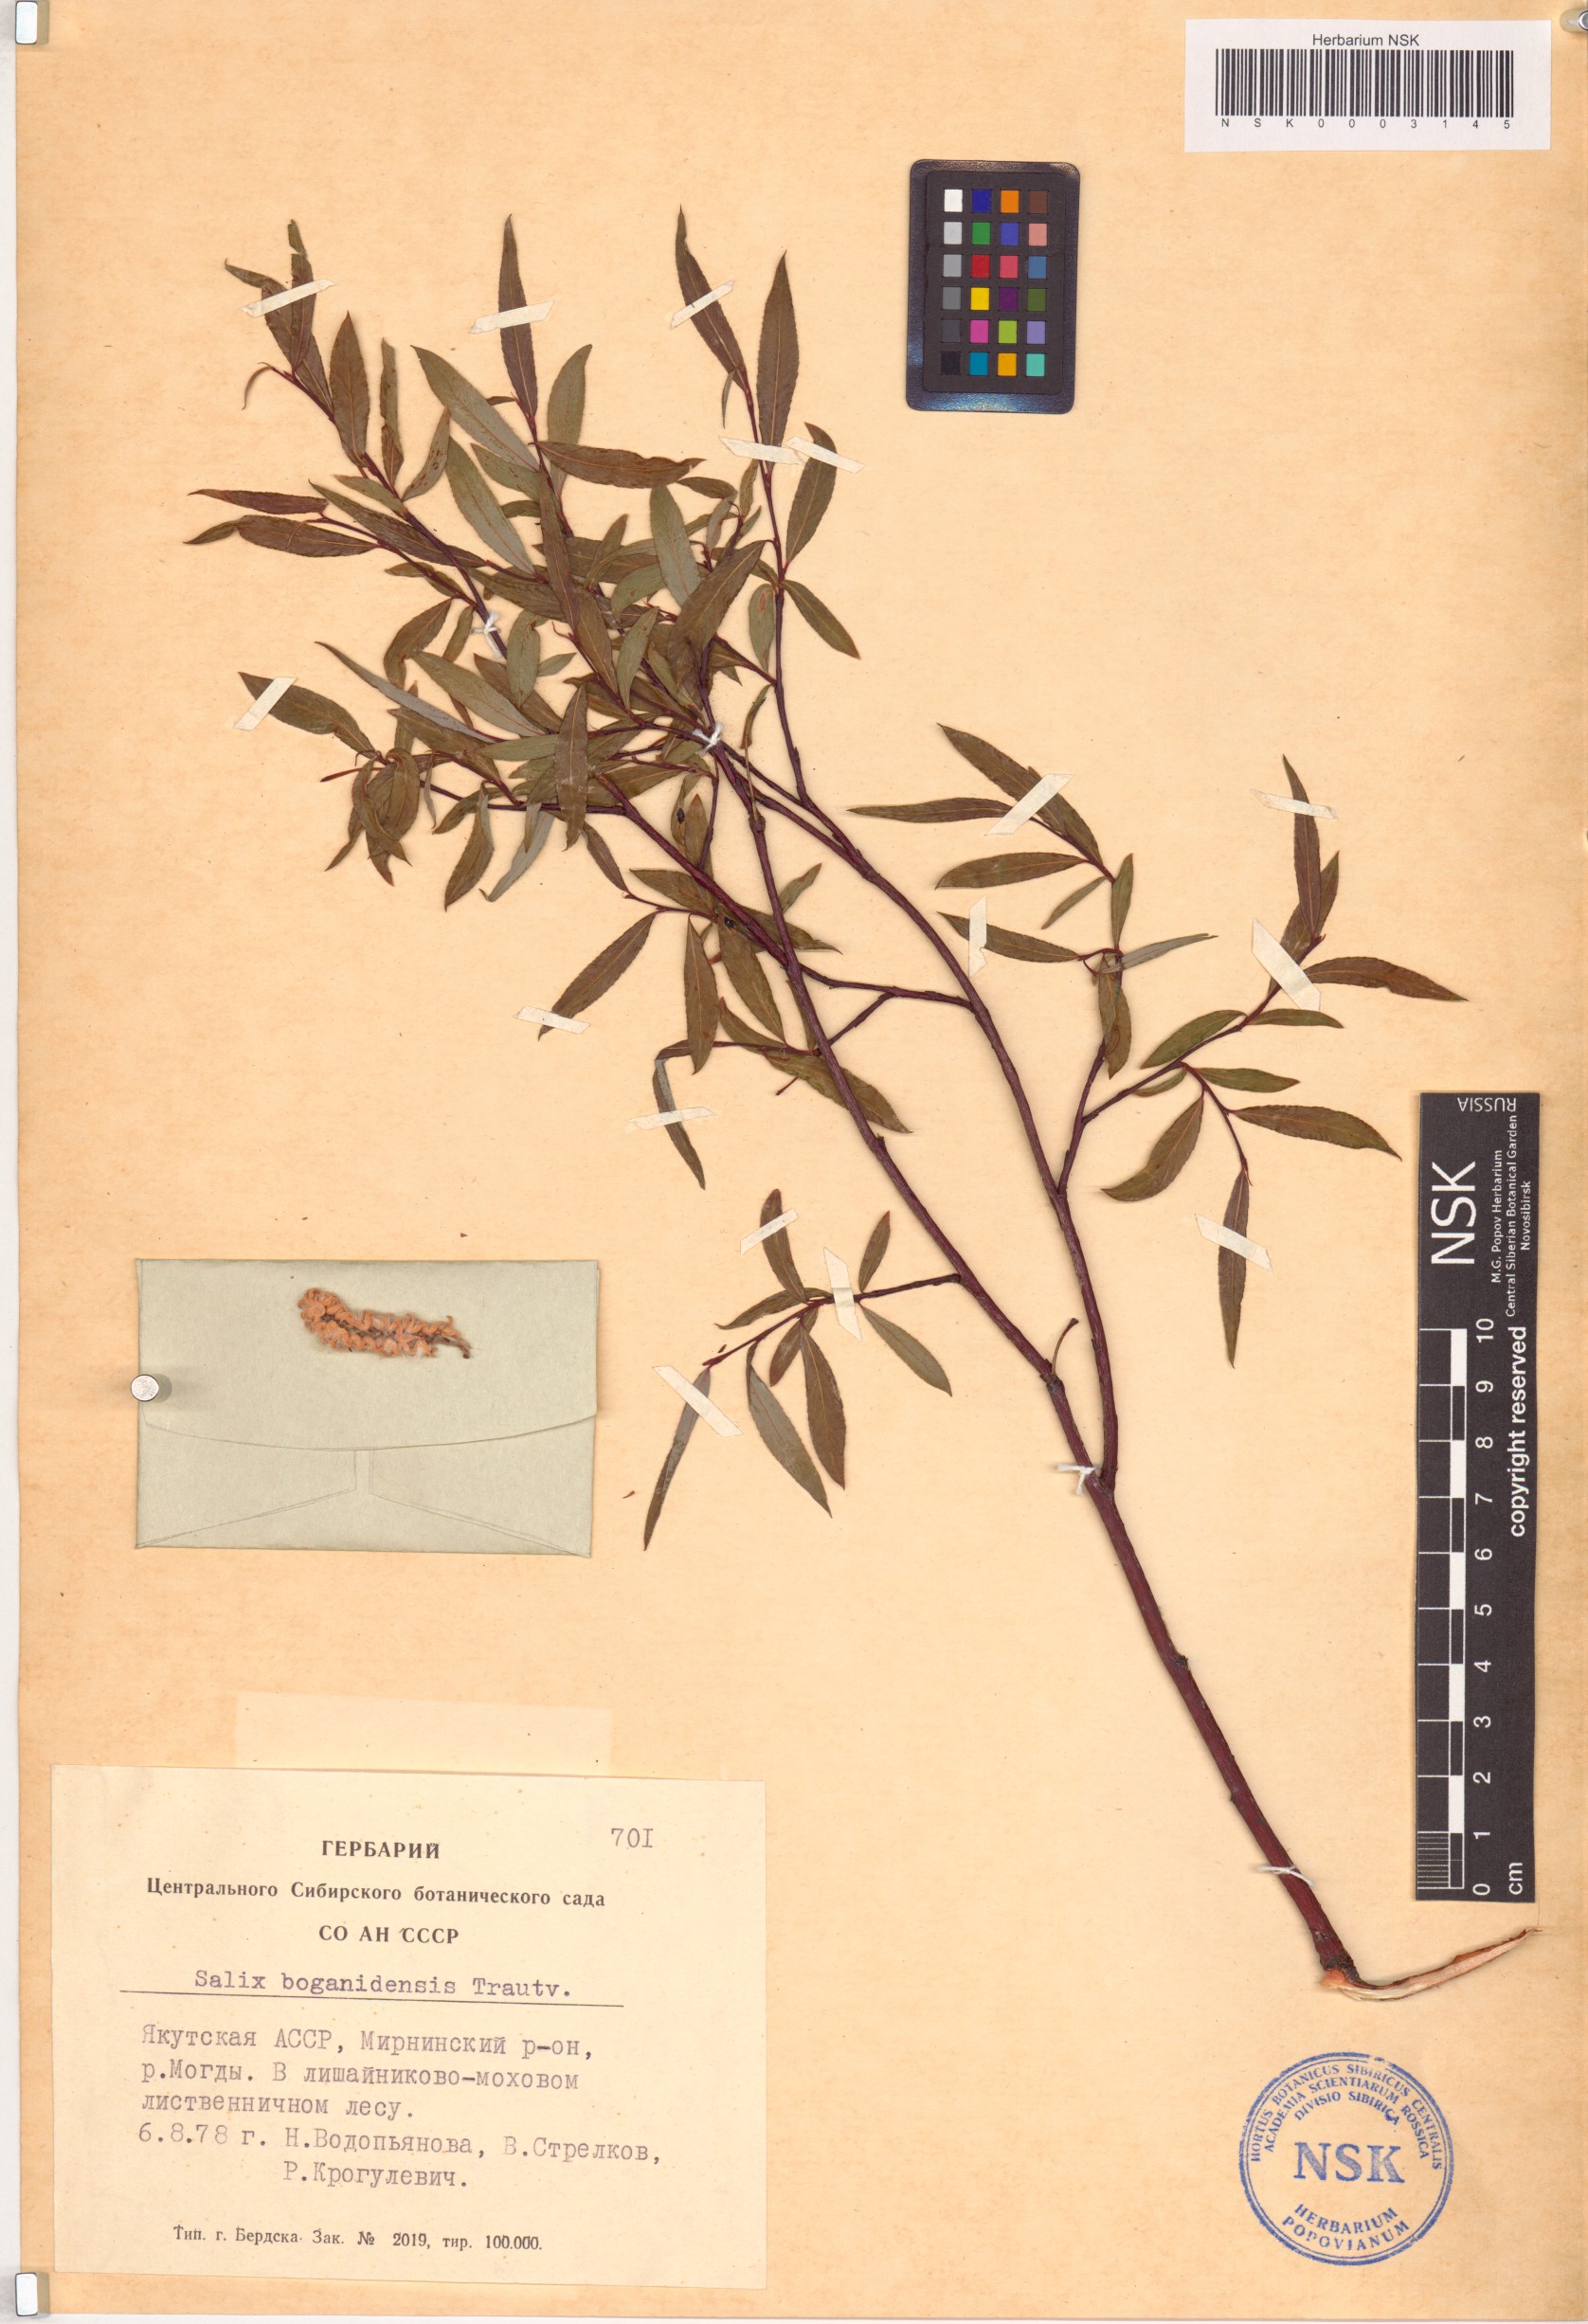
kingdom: Plantae
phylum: Tracheophyta
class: Magnoliopsida
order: Malpighiales
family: Salicaceae
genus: Salix
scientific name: Salix boganidensis
